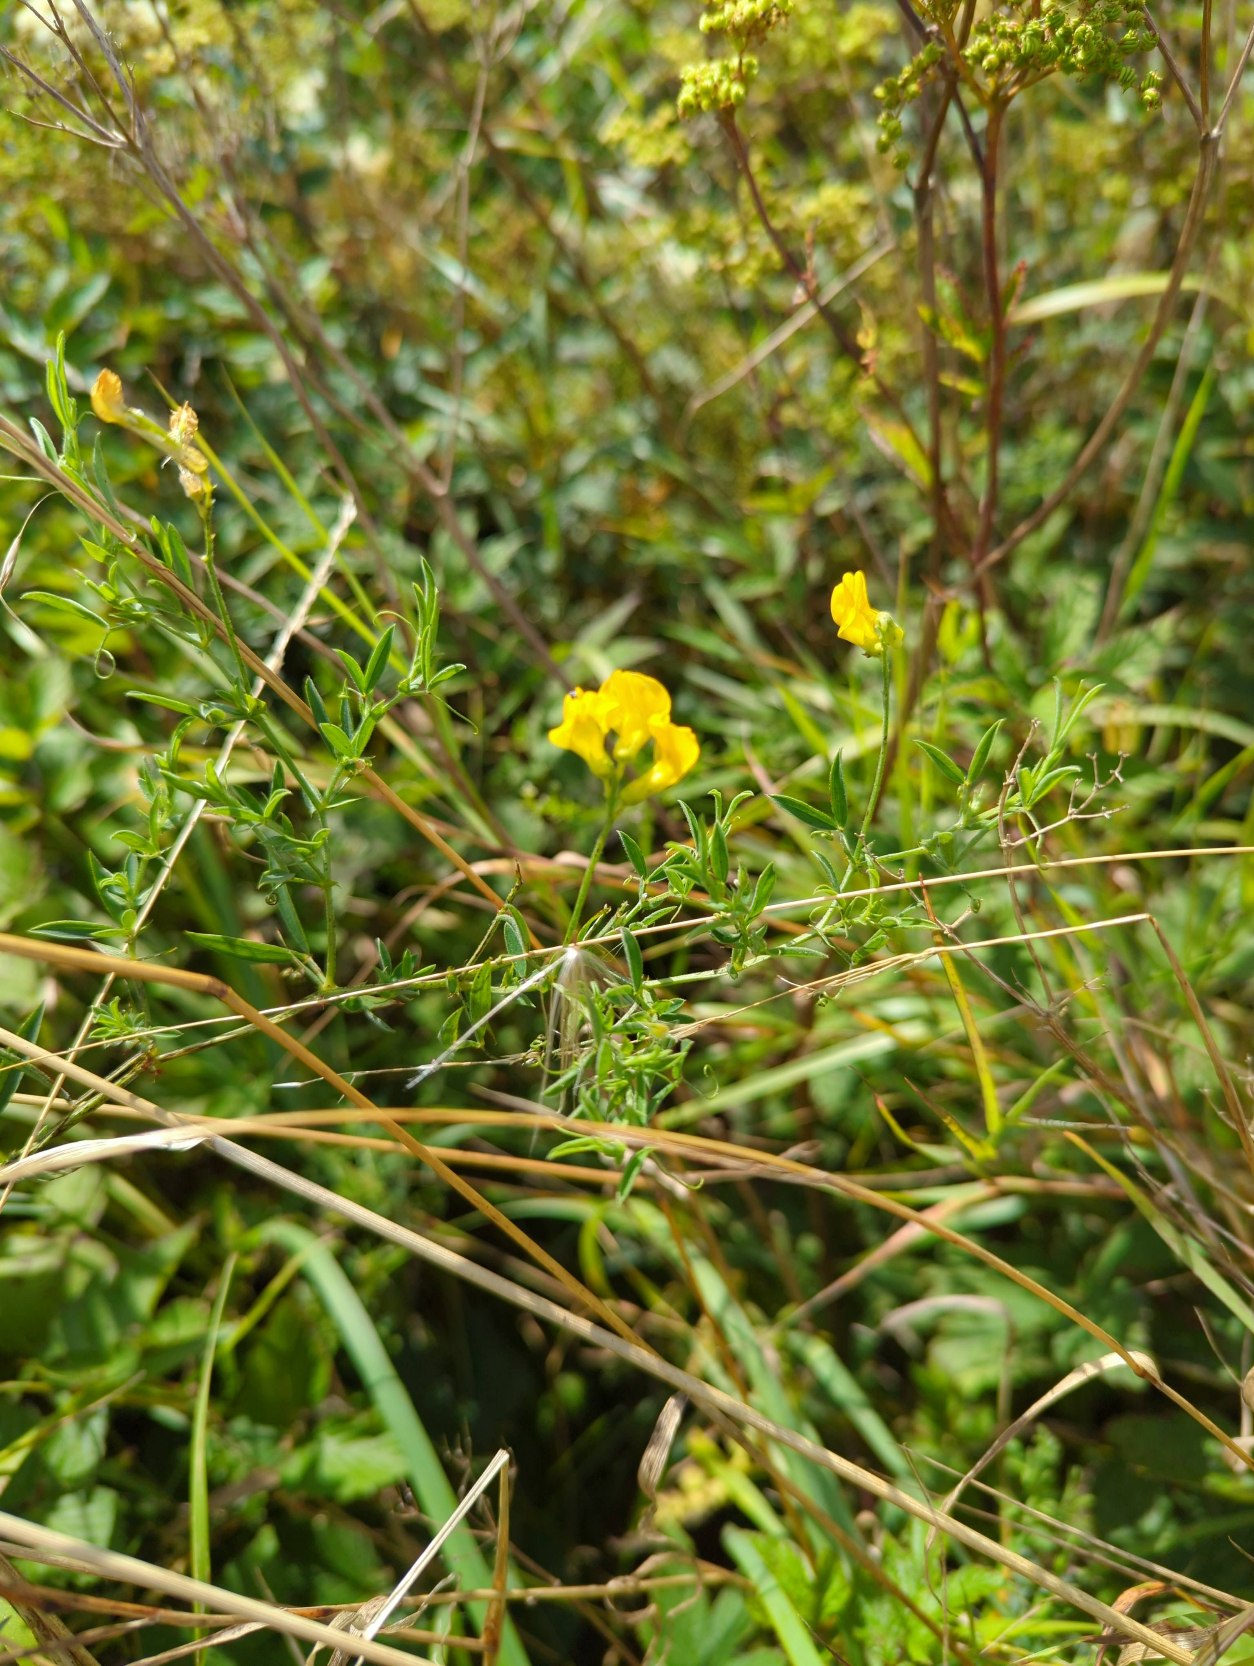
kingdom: Plantae
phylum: Tracheophyta
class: Magnoliopsida
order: Fabales
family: Fabaceae
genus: Lathyrus
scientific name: Lathyrus pratensis
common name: Gul fladbælg
